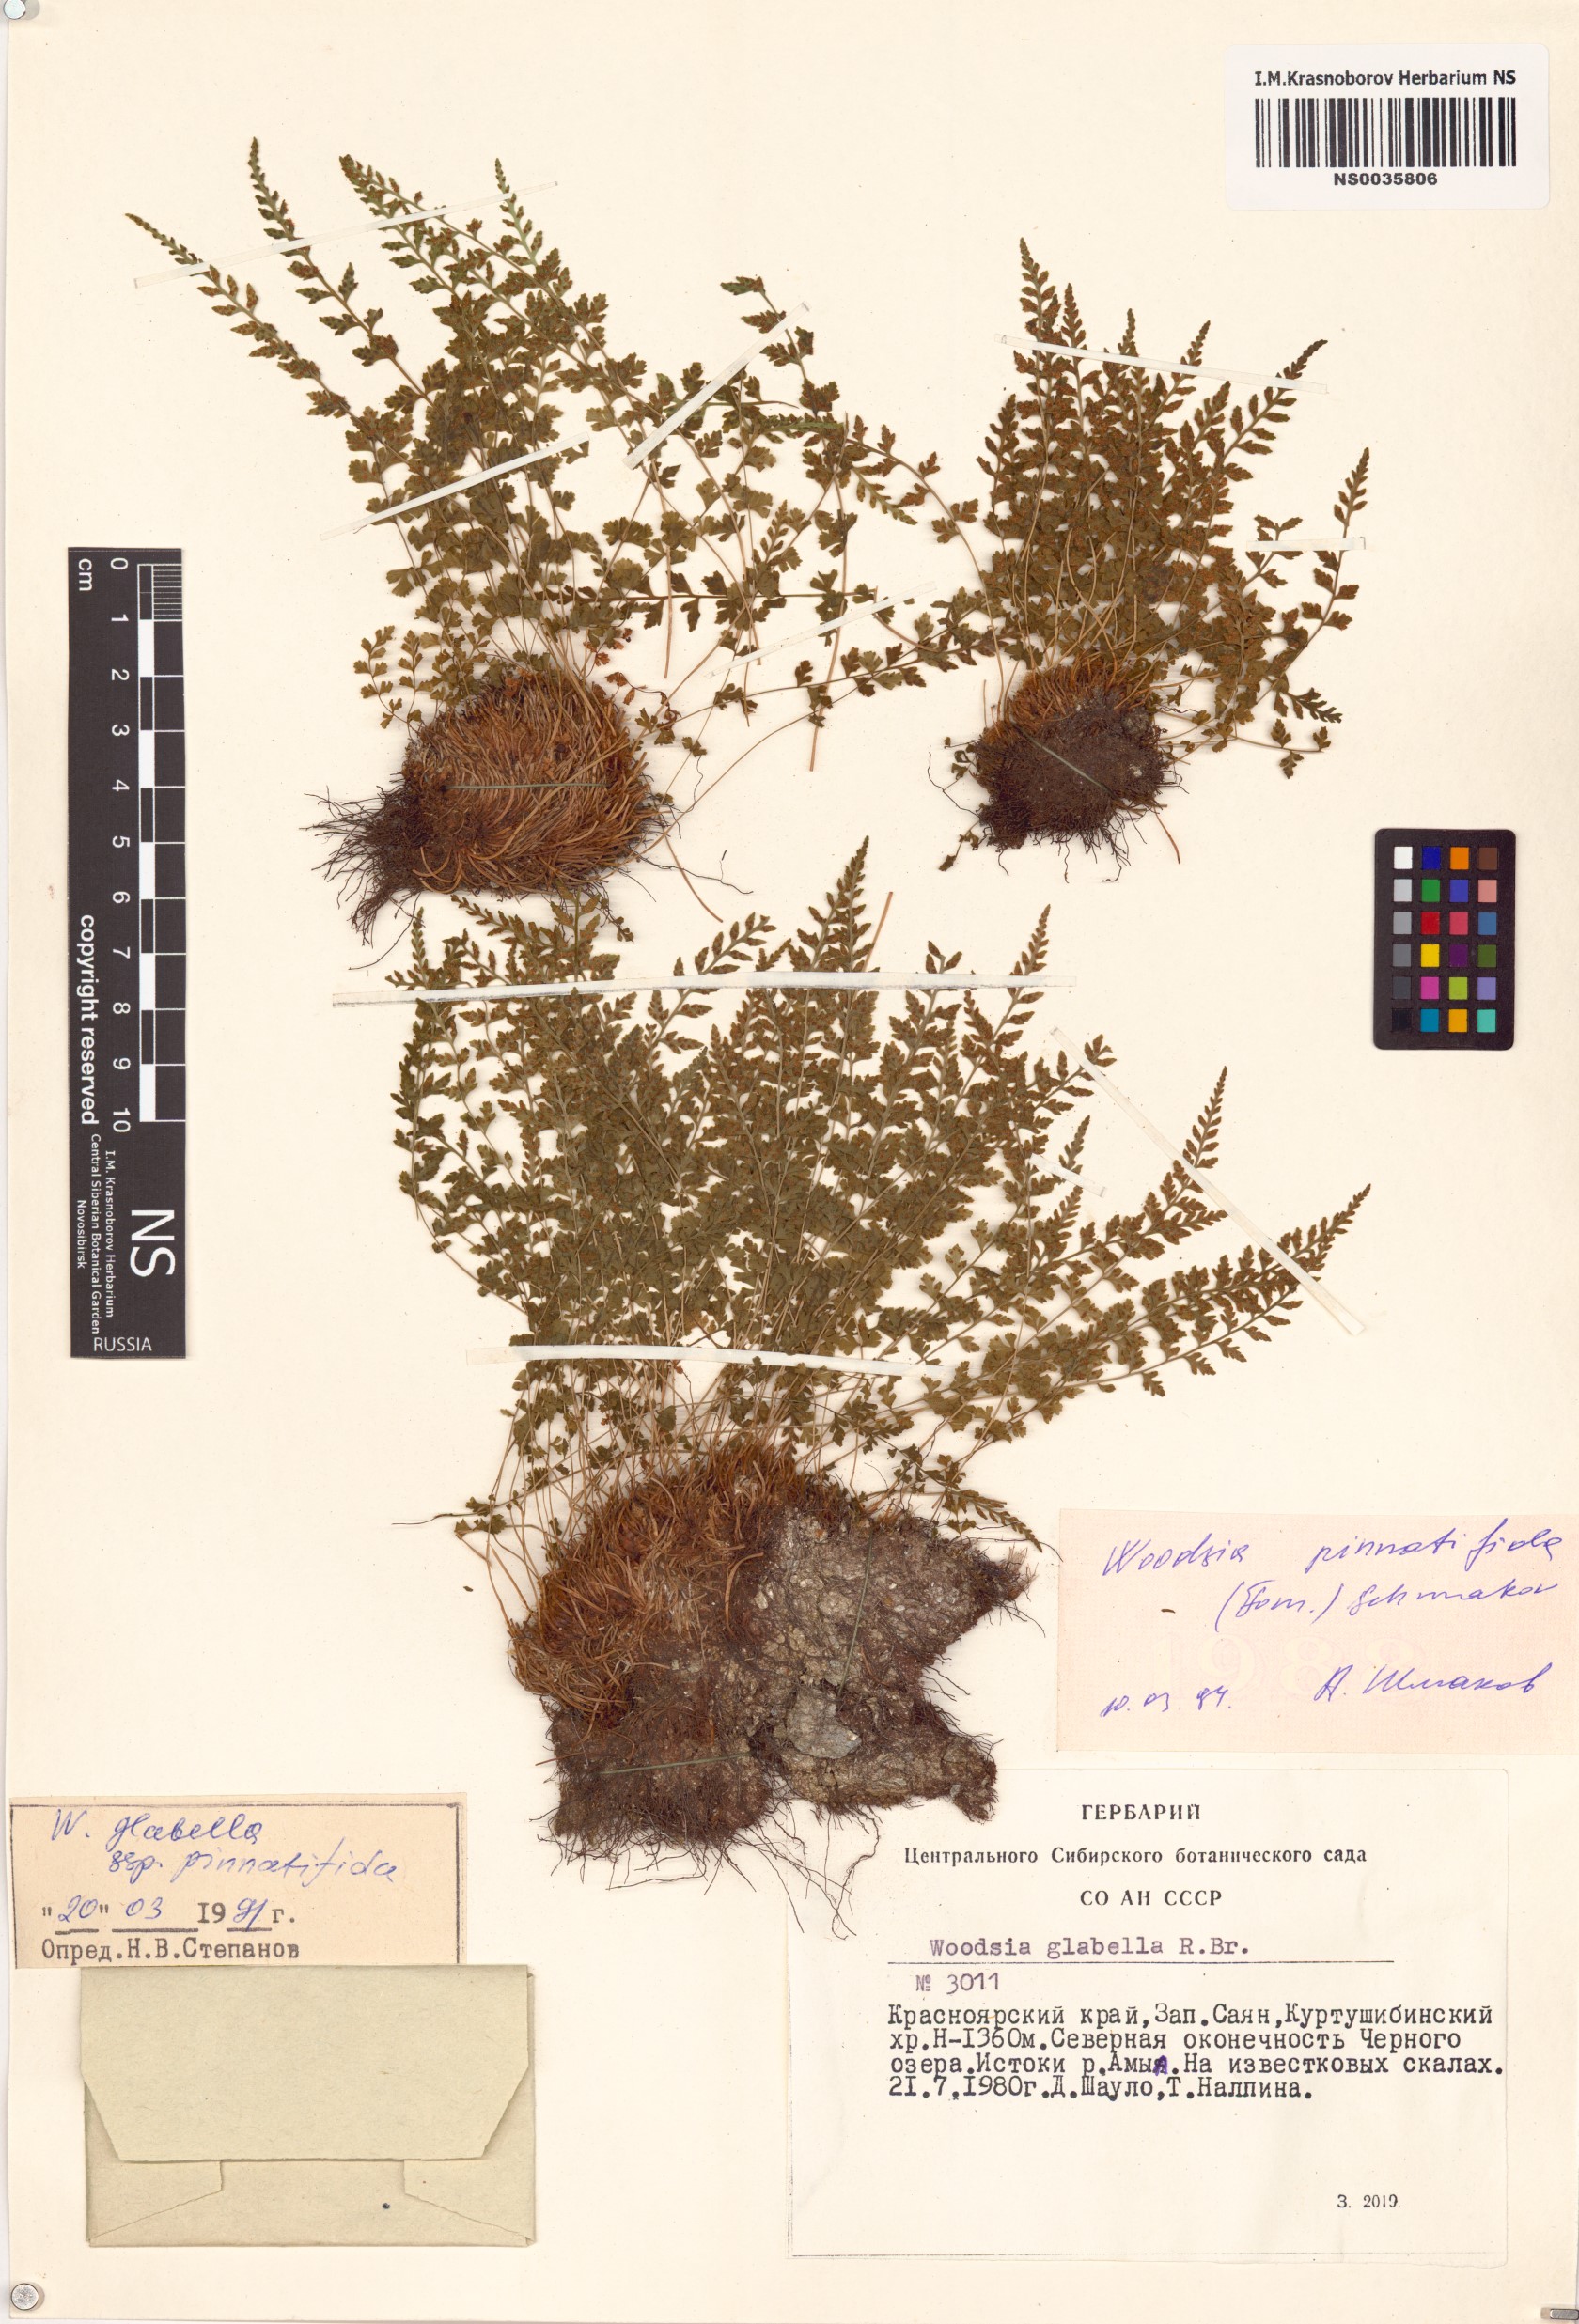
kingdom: Plantae
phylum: Tracheophyta
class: Polypodiopsida
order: Polypodiales
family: Woodsiaceae
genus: Woodsia
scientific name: Woodsia
